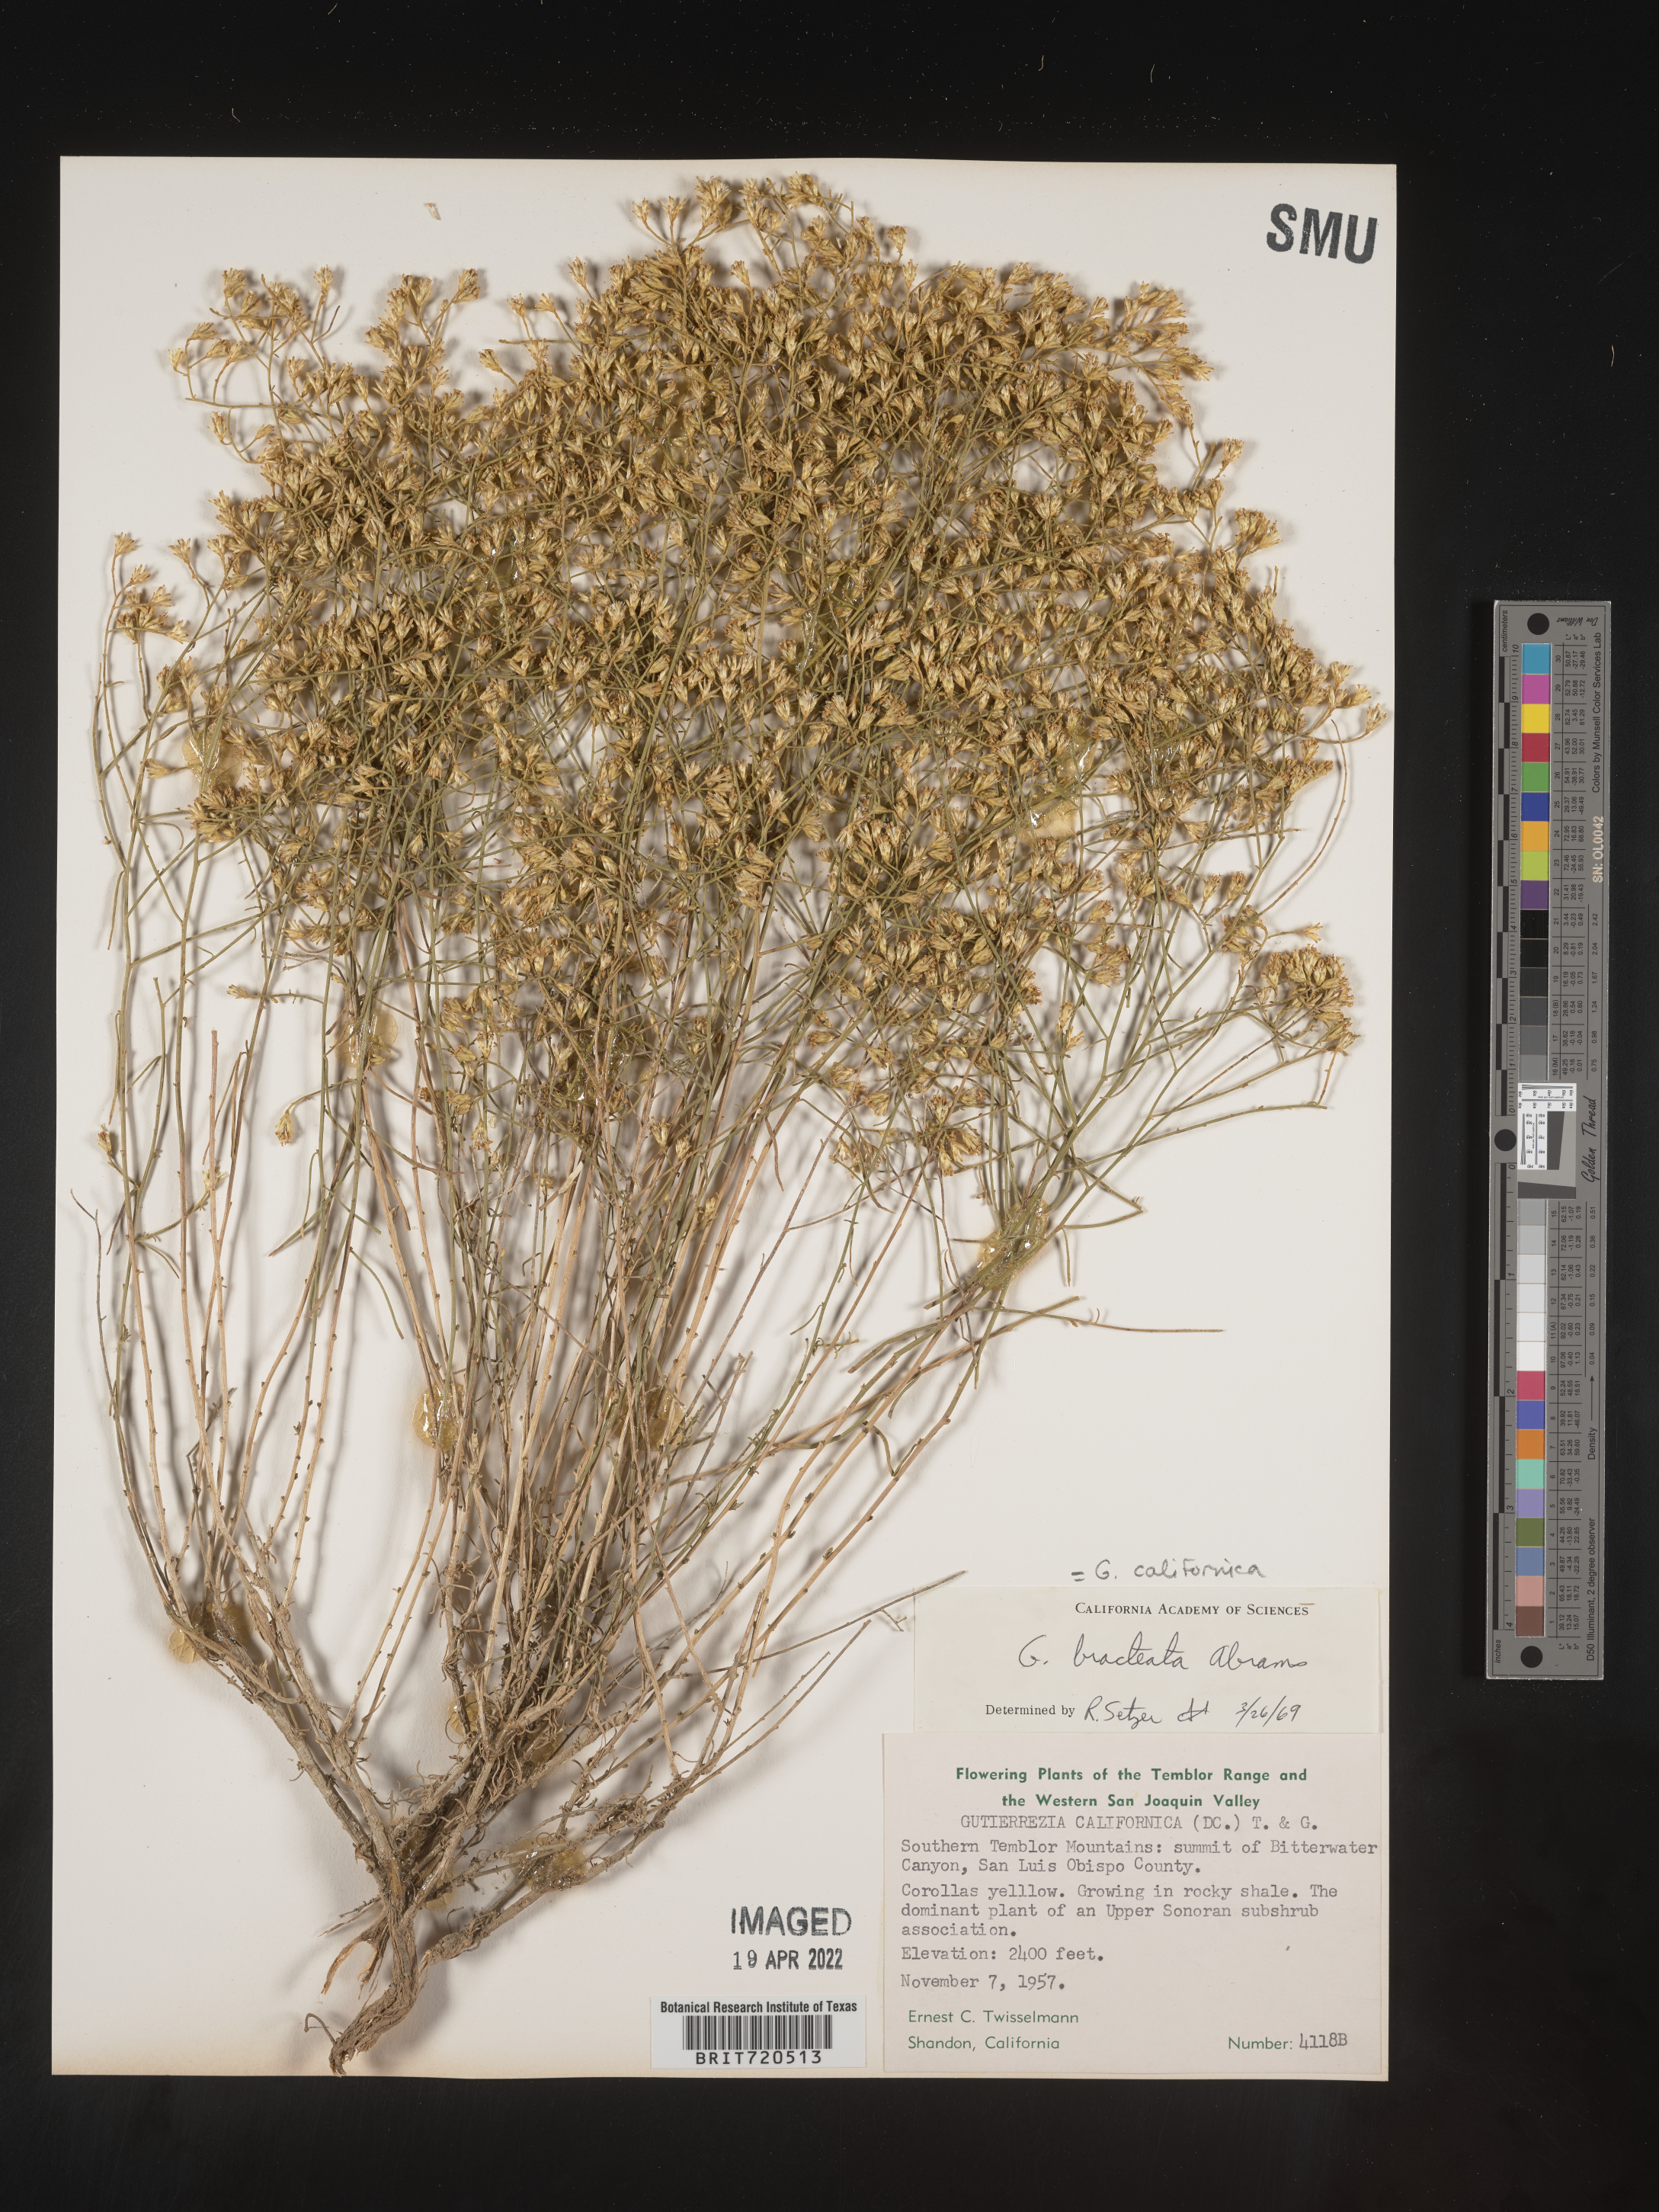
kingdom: Plantae
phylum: Tracheophyta
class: Magnoliopsida
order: Asterales
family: Asteraceae
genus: Gutierrezia
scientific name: Gutierrezia
